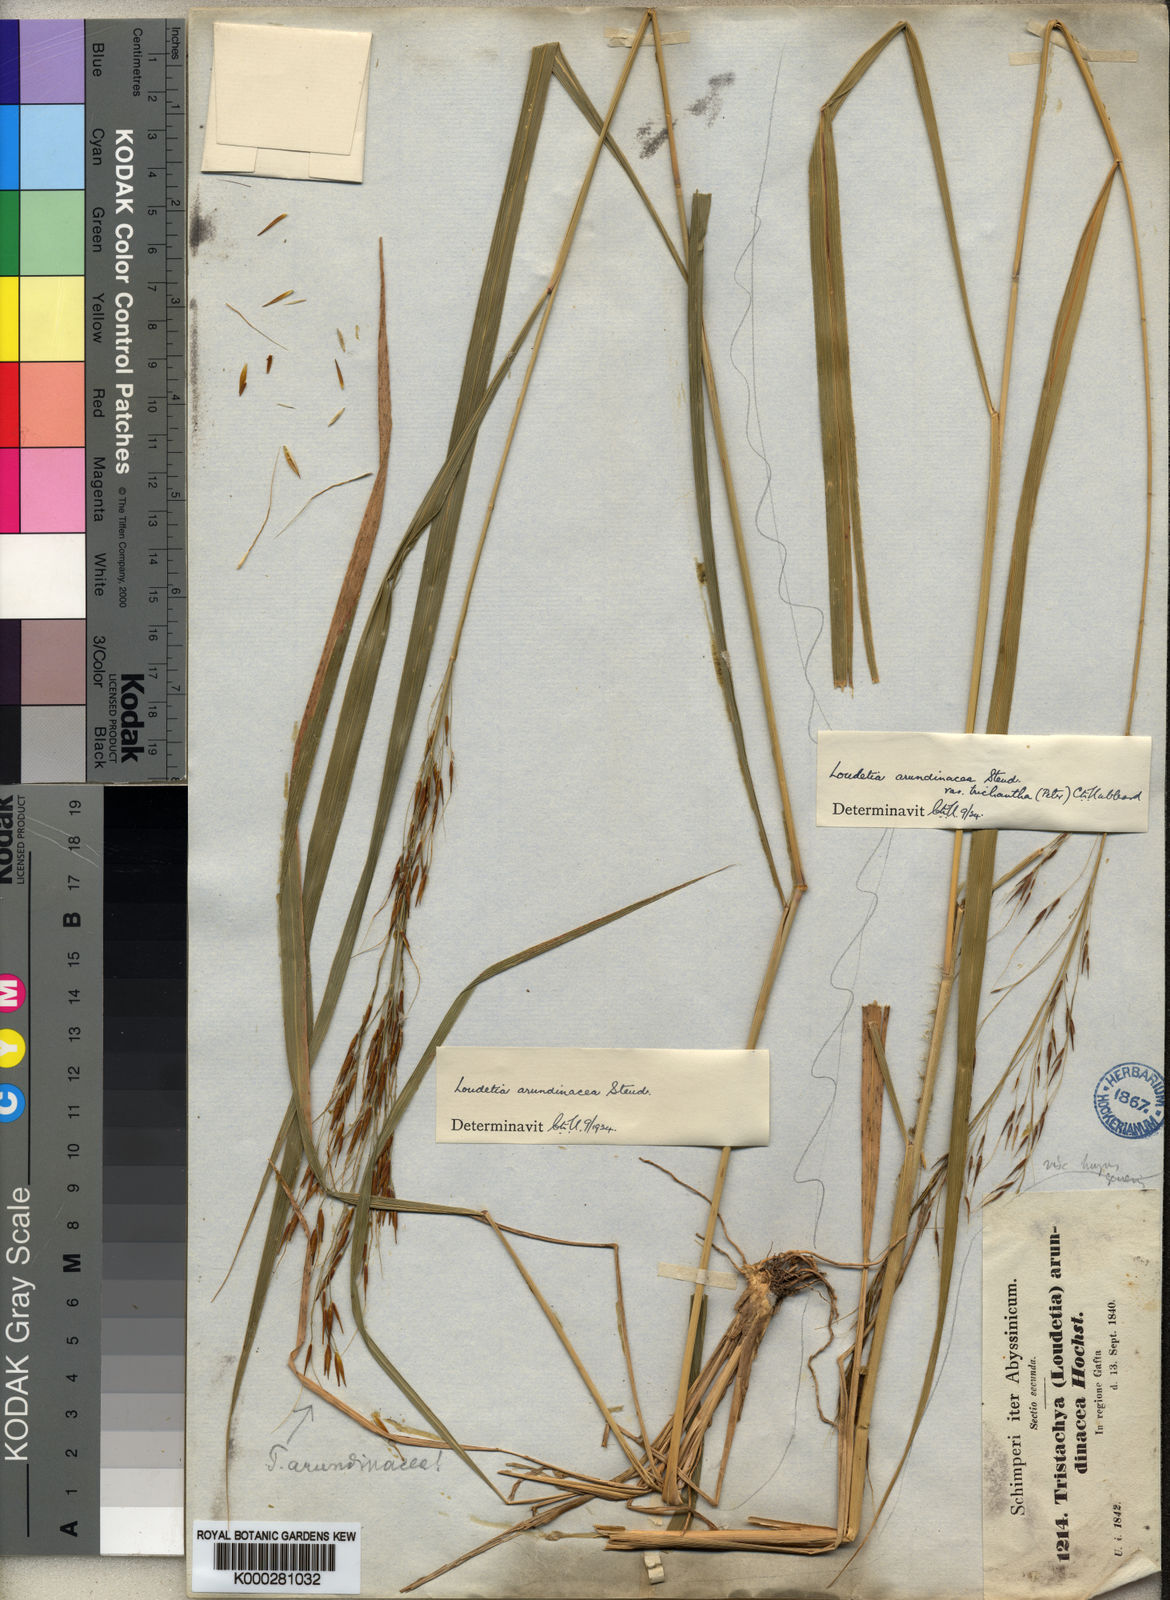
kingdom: Plantae
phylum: Tracheophyta
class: Liliopsida
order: Poales
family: Poaceae
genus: Loudetia
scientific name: Loudetia arundinacea
